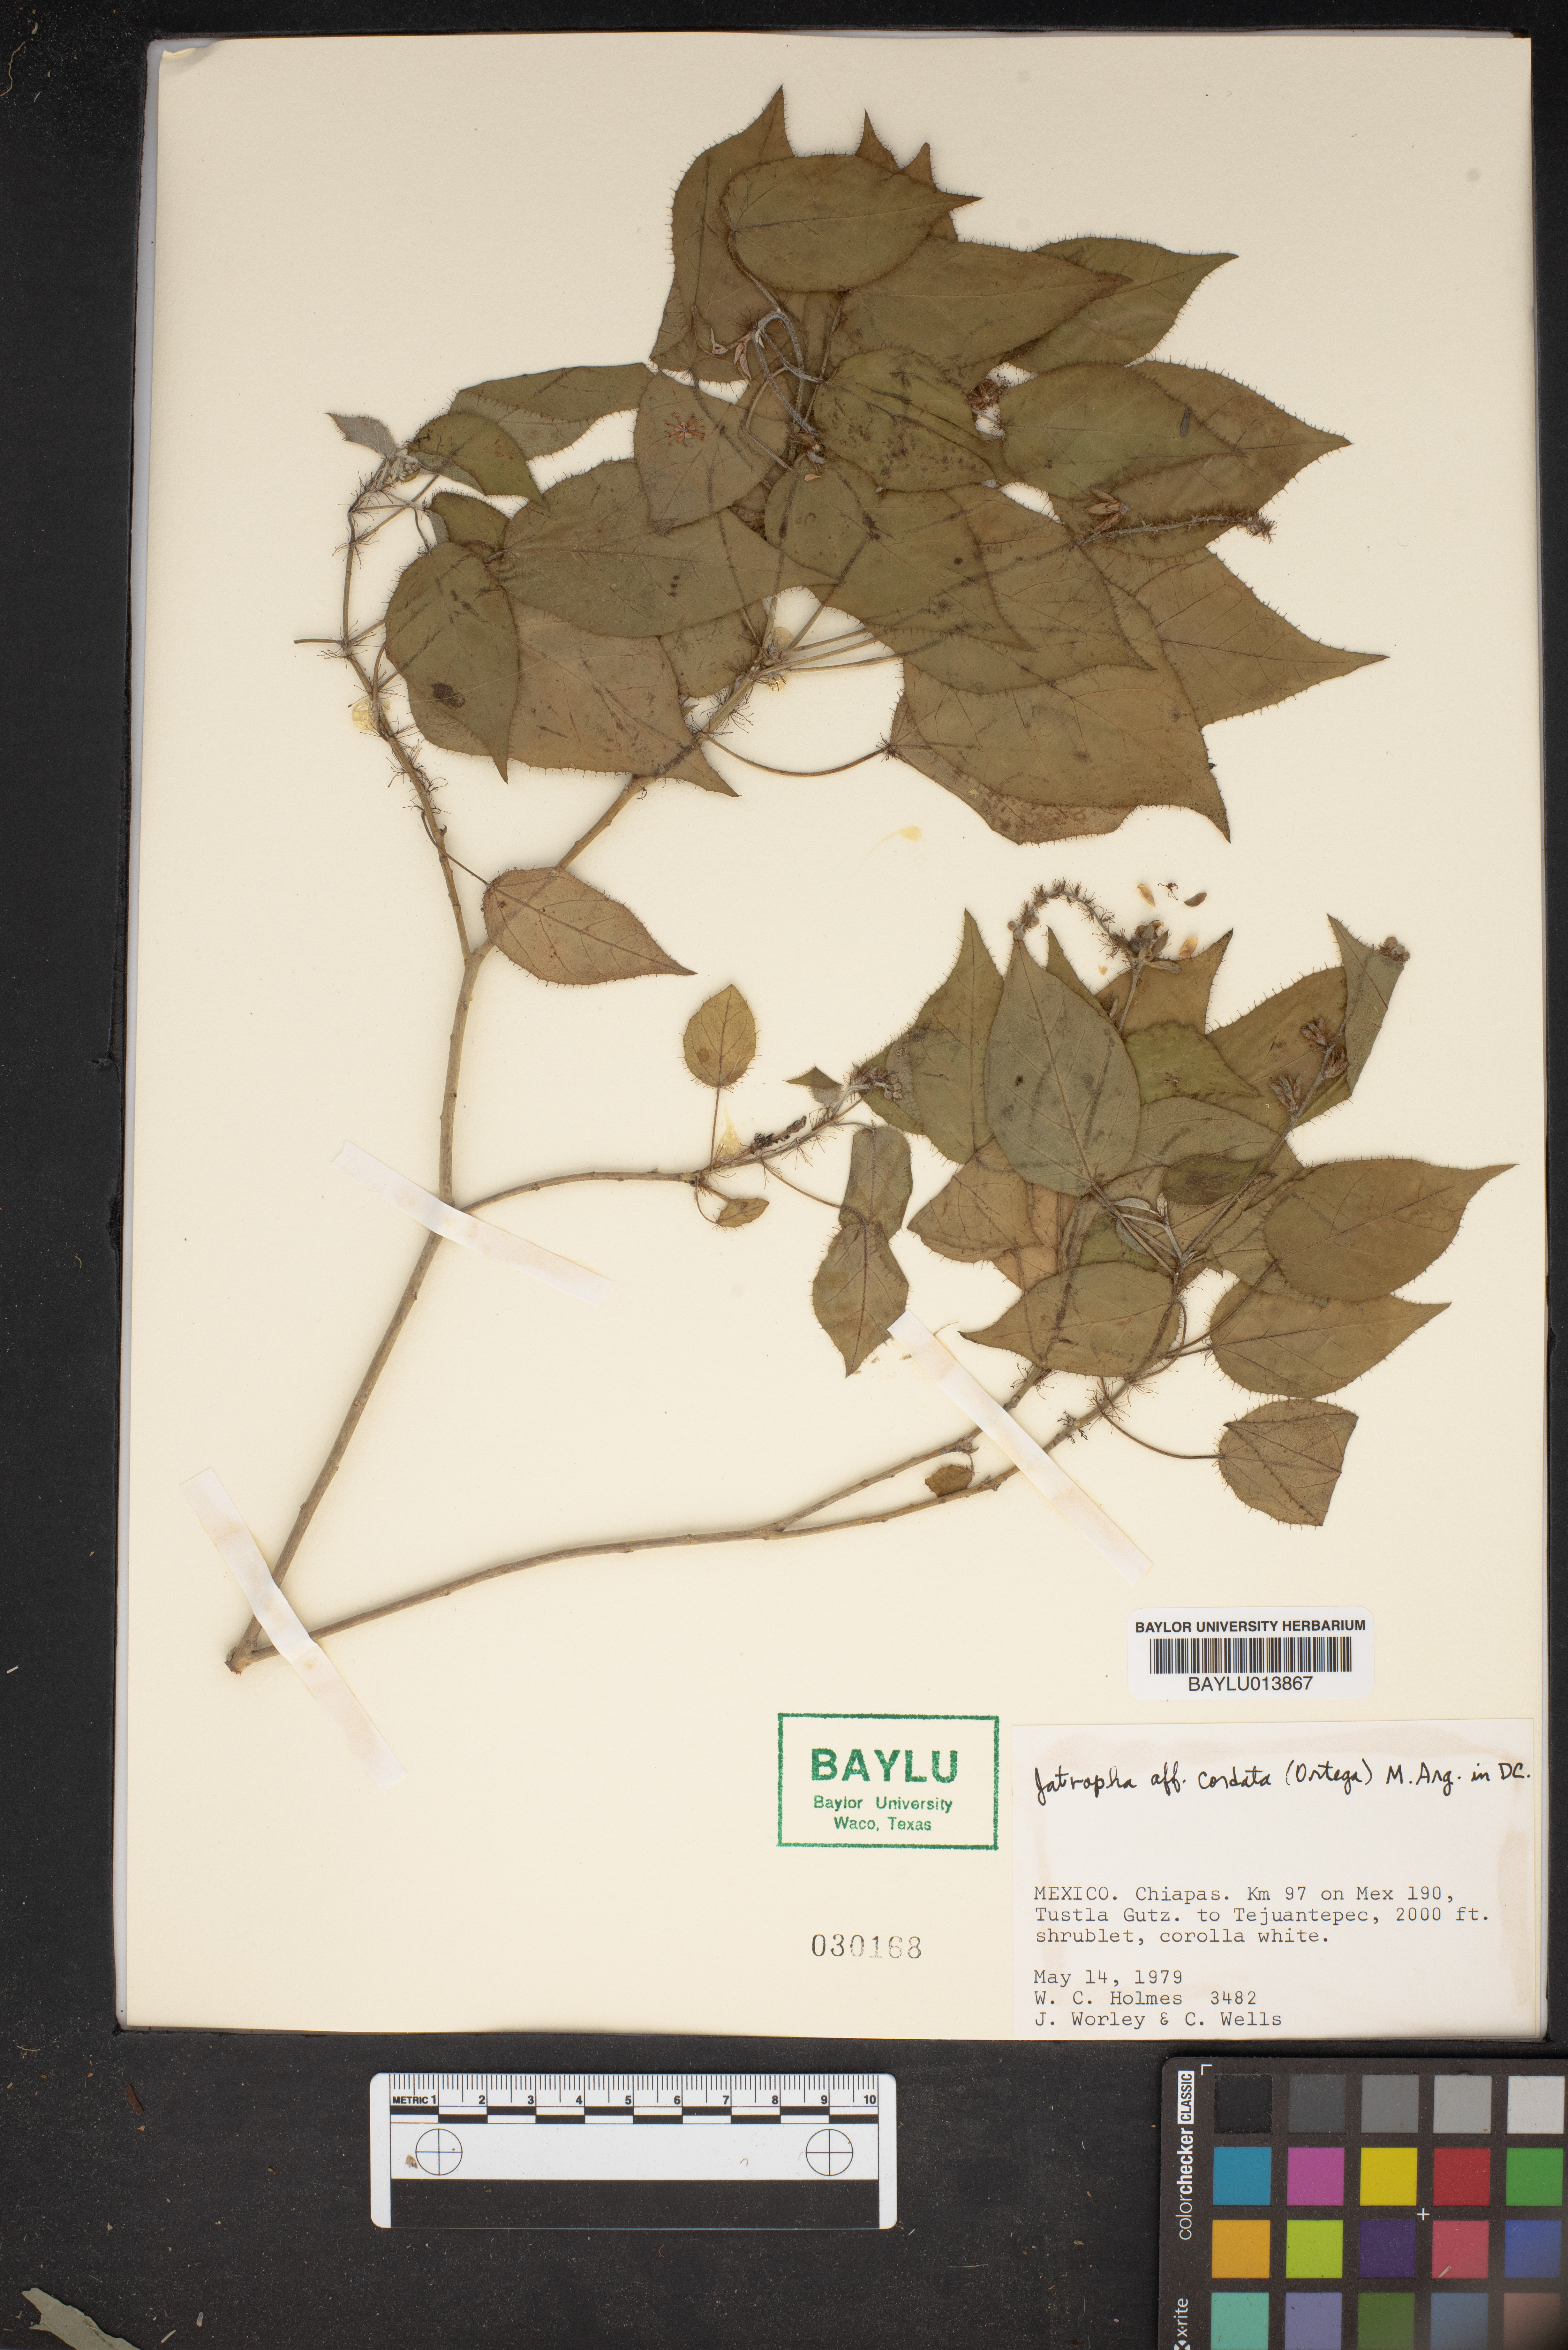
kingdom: Plantae
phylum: Tracheophyta
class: Magnoliopsida
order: Malpighiales
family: Euphorbiaceae
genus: Jatropha
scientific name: Jatropha cordata
